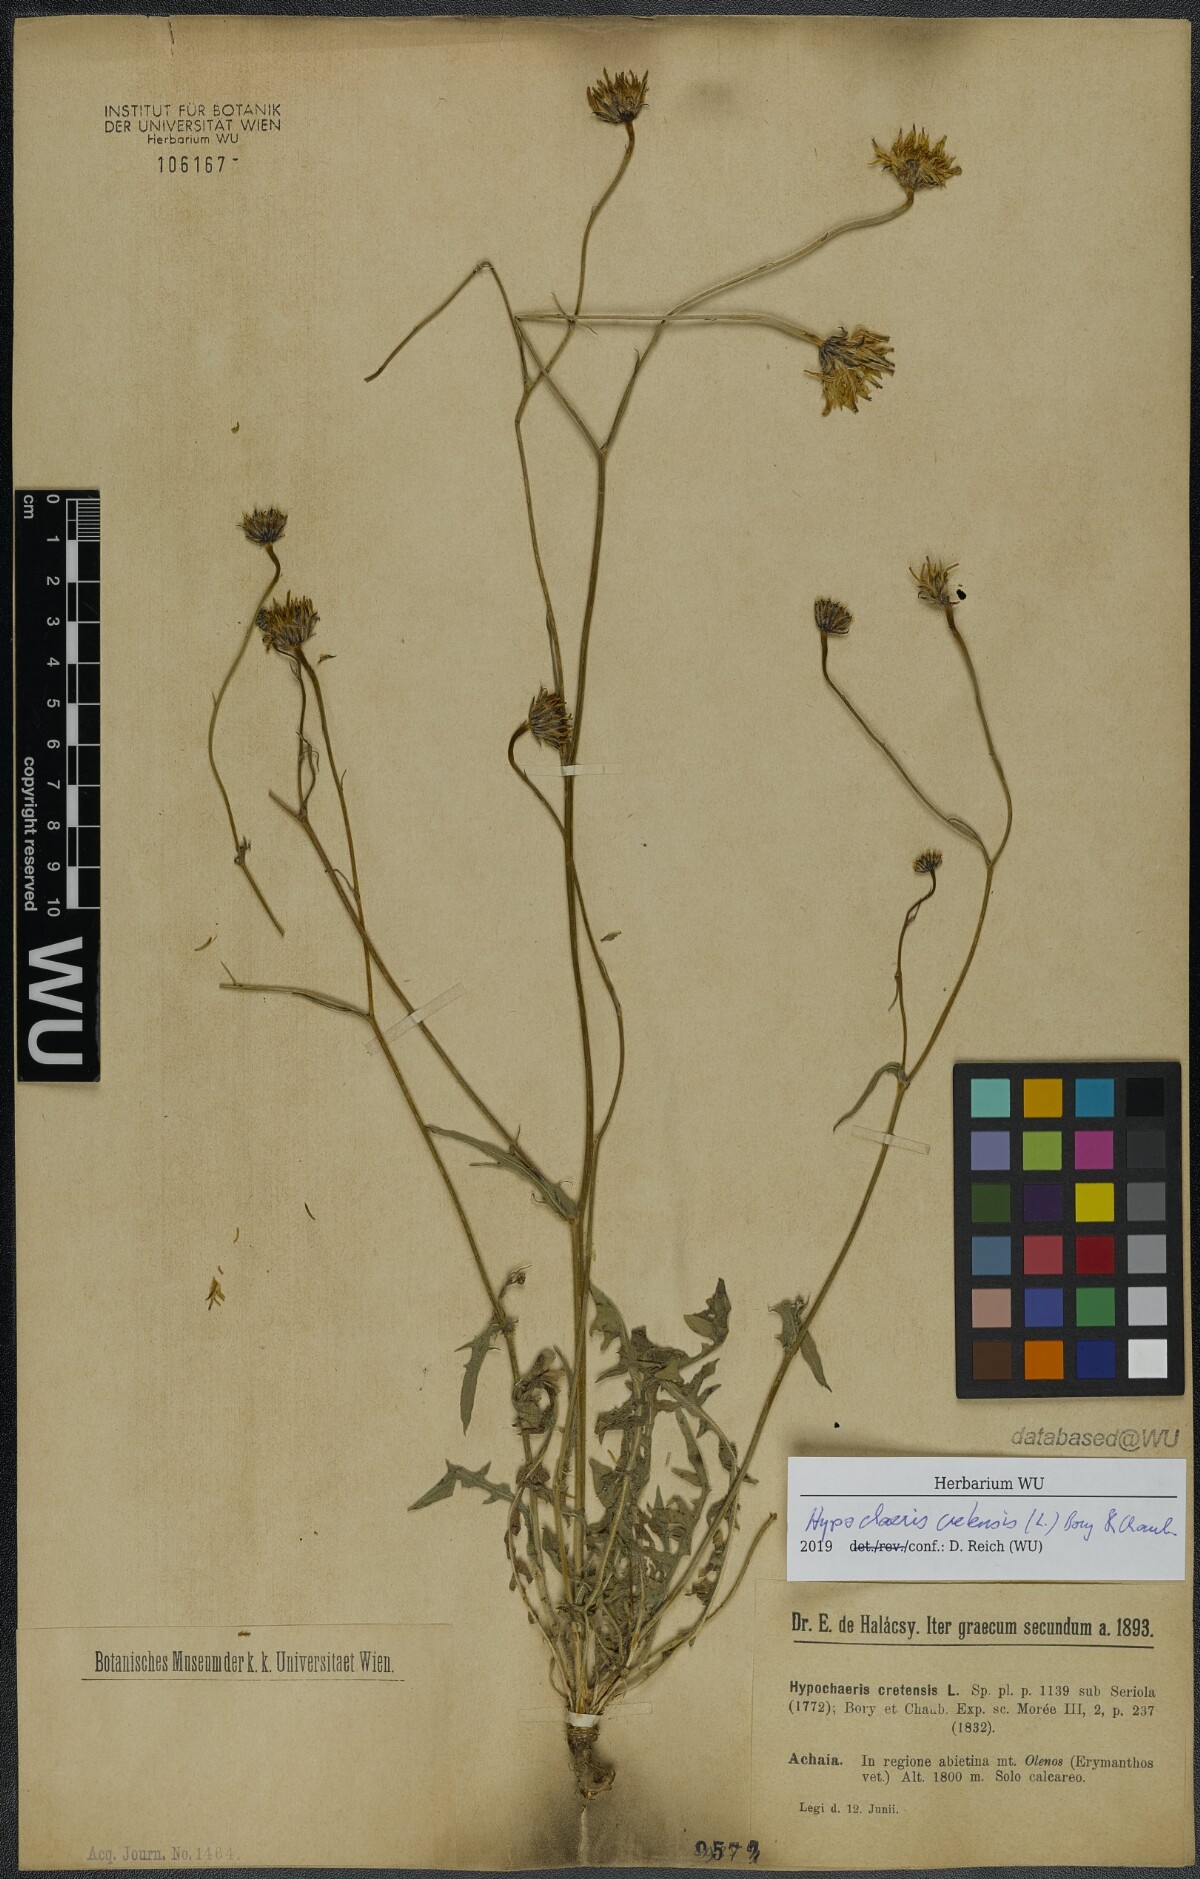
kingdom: Plantae
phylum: Tracheophyta
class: Magnoliopsida
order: Asterales
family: Asteraceae
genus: Hypochaeris
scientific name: Hypochaeris cretensis
